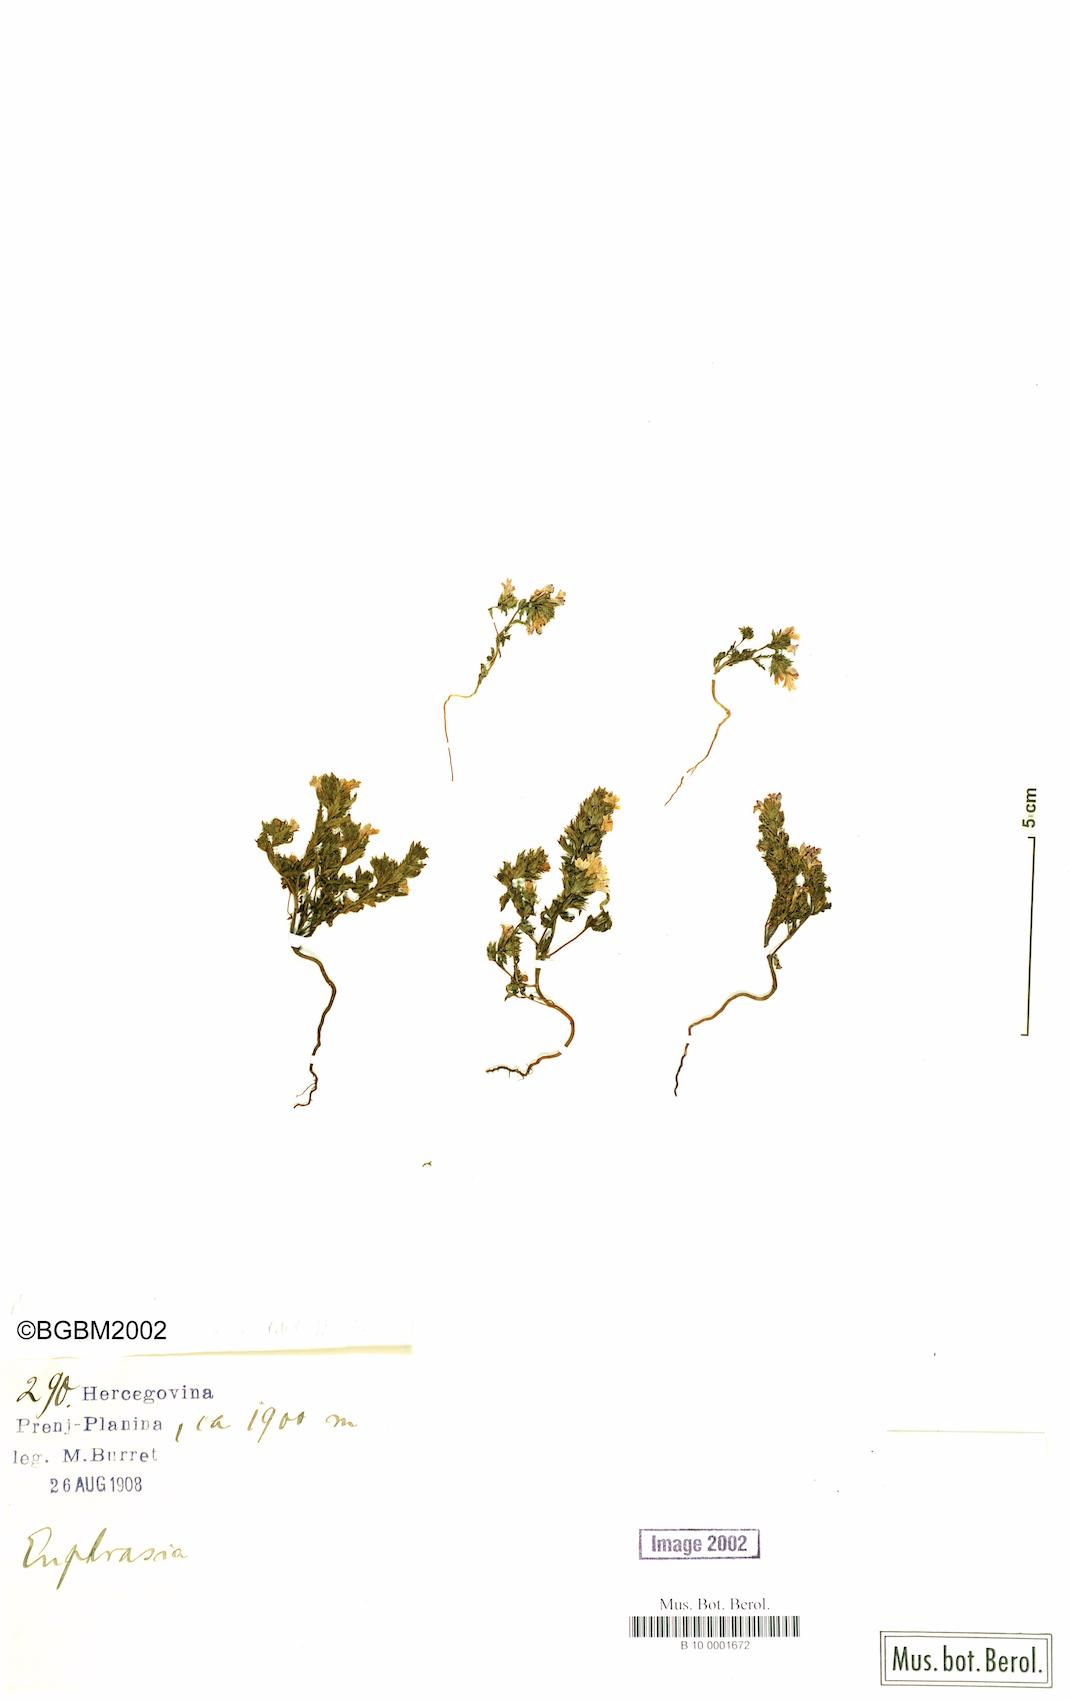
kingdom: Plantae
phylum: Tracheophyta
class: Magnoliopsida
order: Lamiales
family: Orobanchaceae
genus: Euphrasia
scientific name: Euphrasia illyrica
